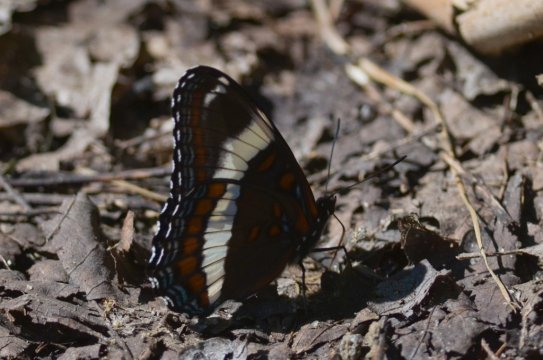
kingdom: Animalia
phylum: Arthropoda
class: Insecta
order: Lepidoptera
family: Nymphalidae
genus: Limenitis
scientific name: Limenitis arthemis
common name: Red-spotted Admiral
